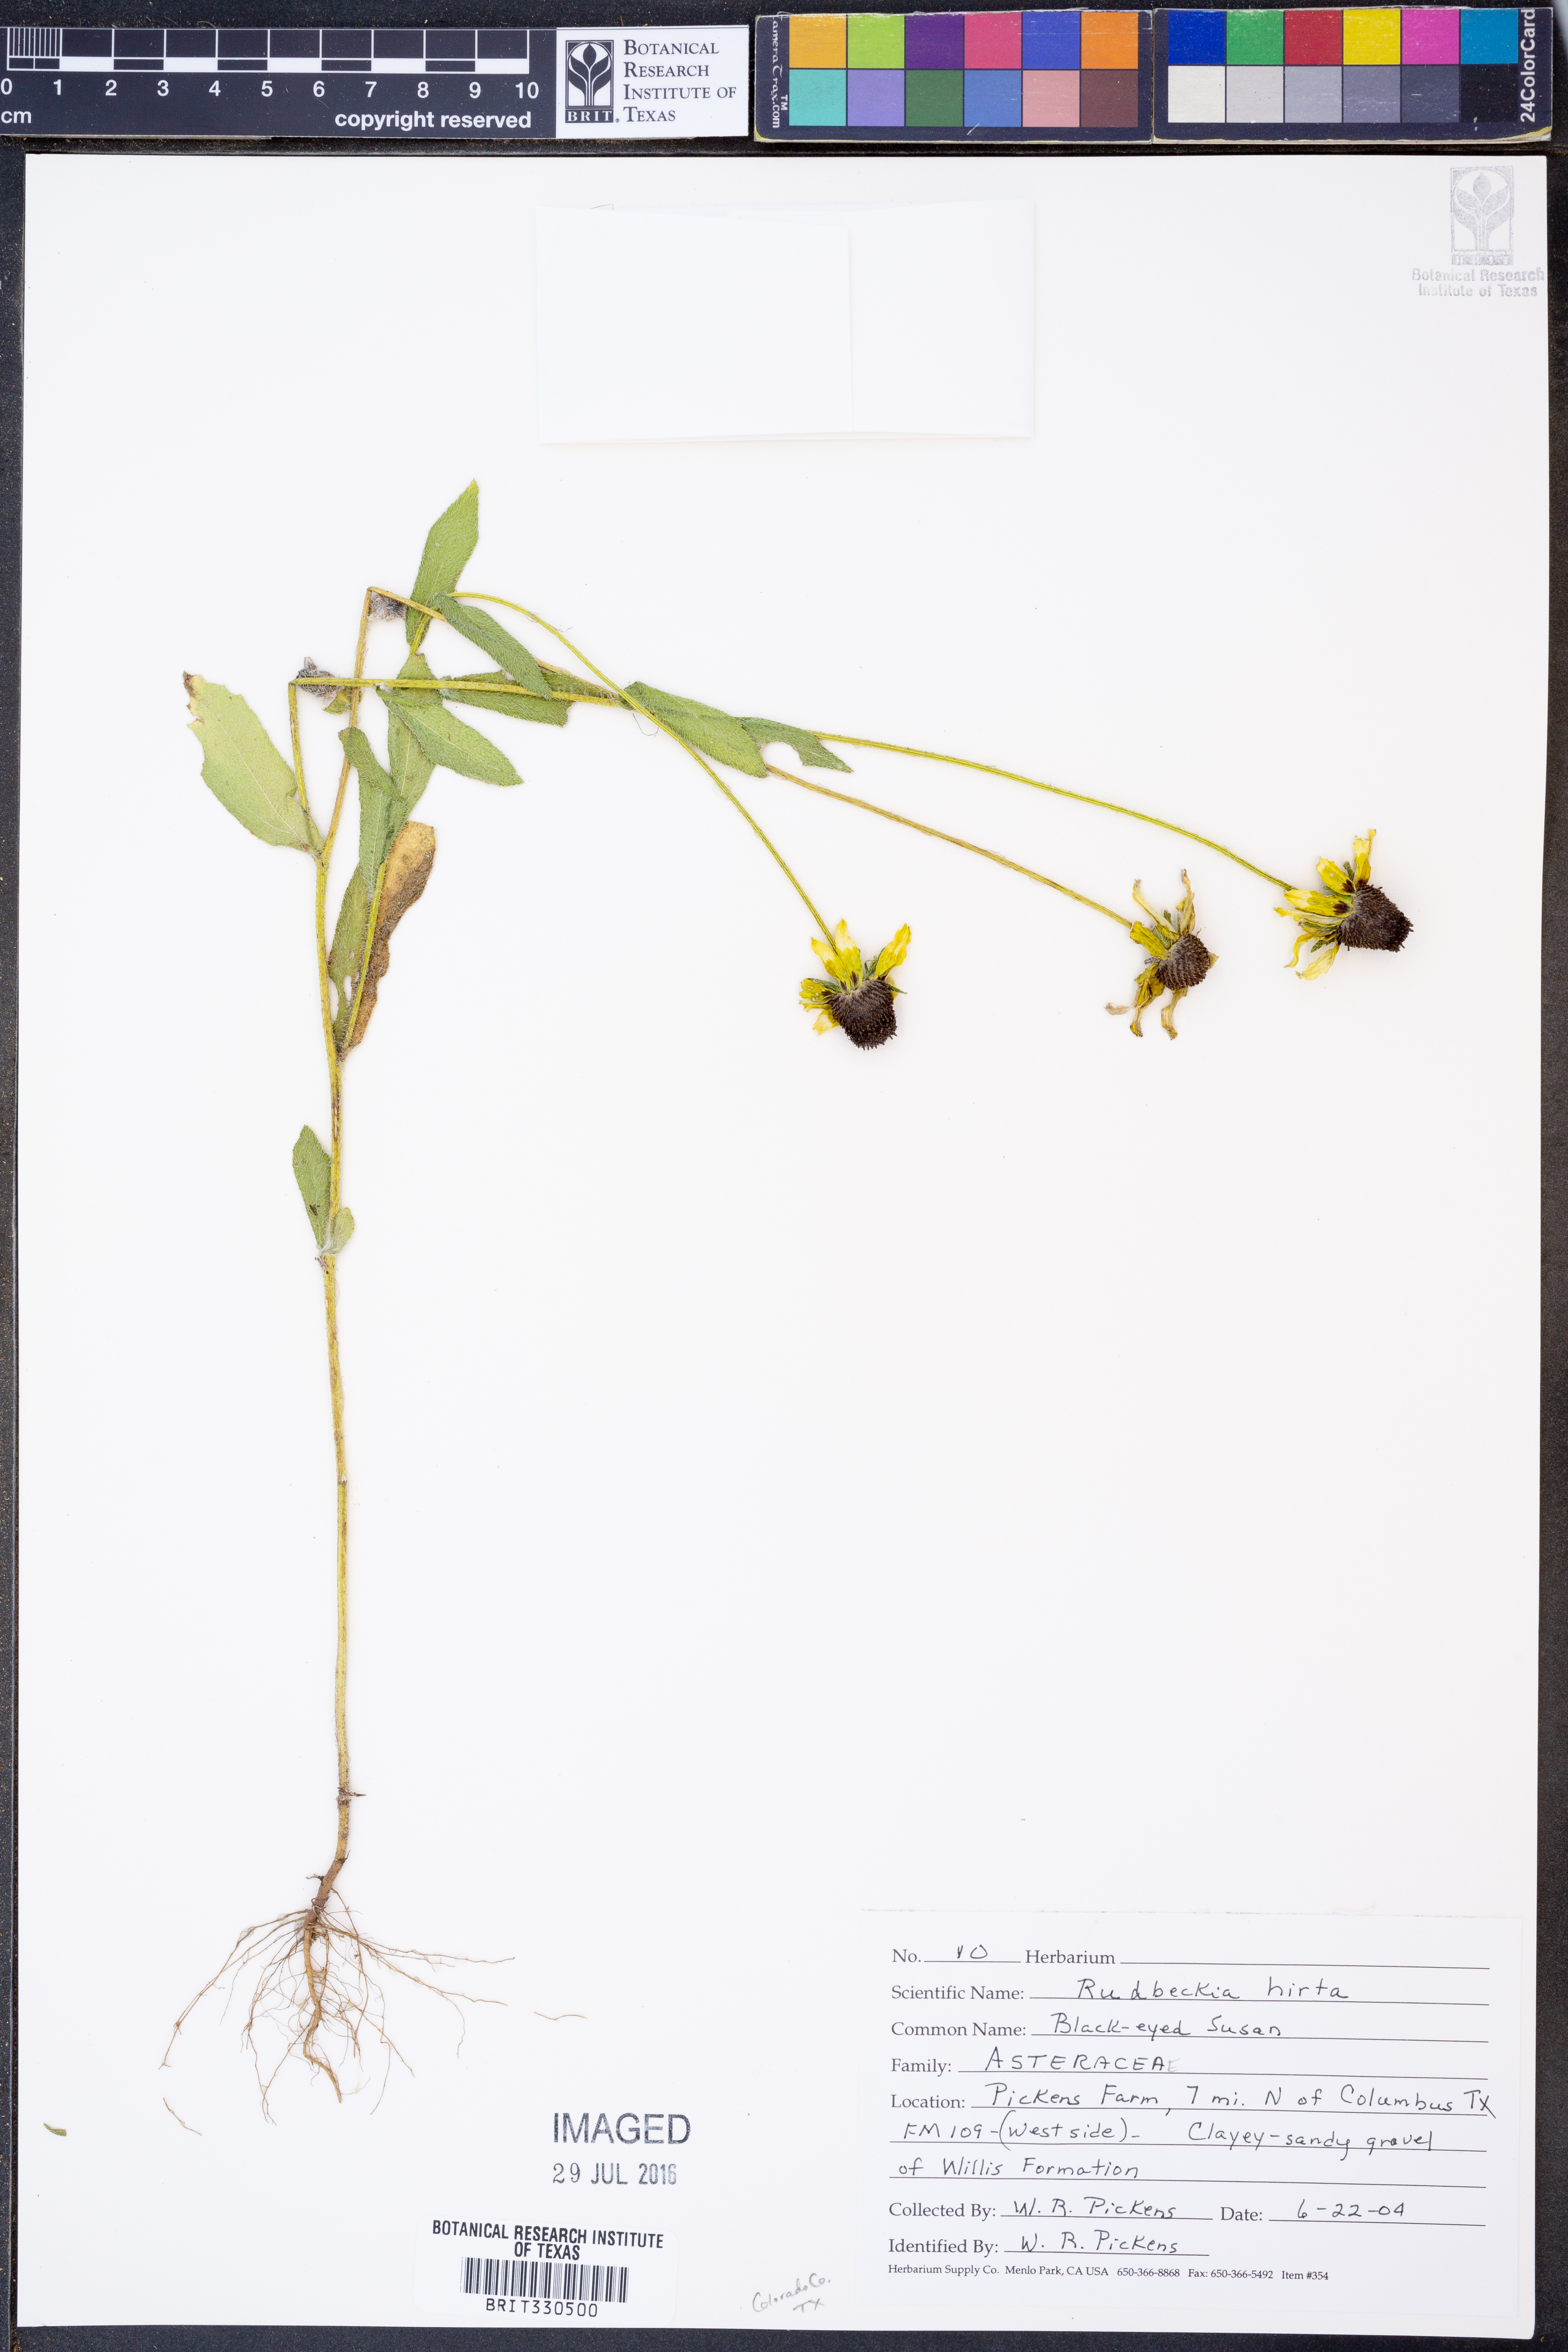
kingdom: Plantae
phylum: Tracheophyta
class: Magnoliopsida
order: Asterales
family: Asteraceae
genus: Rudbeckia
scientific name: Rudbeckia hirta
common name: Black-eyed-susan
